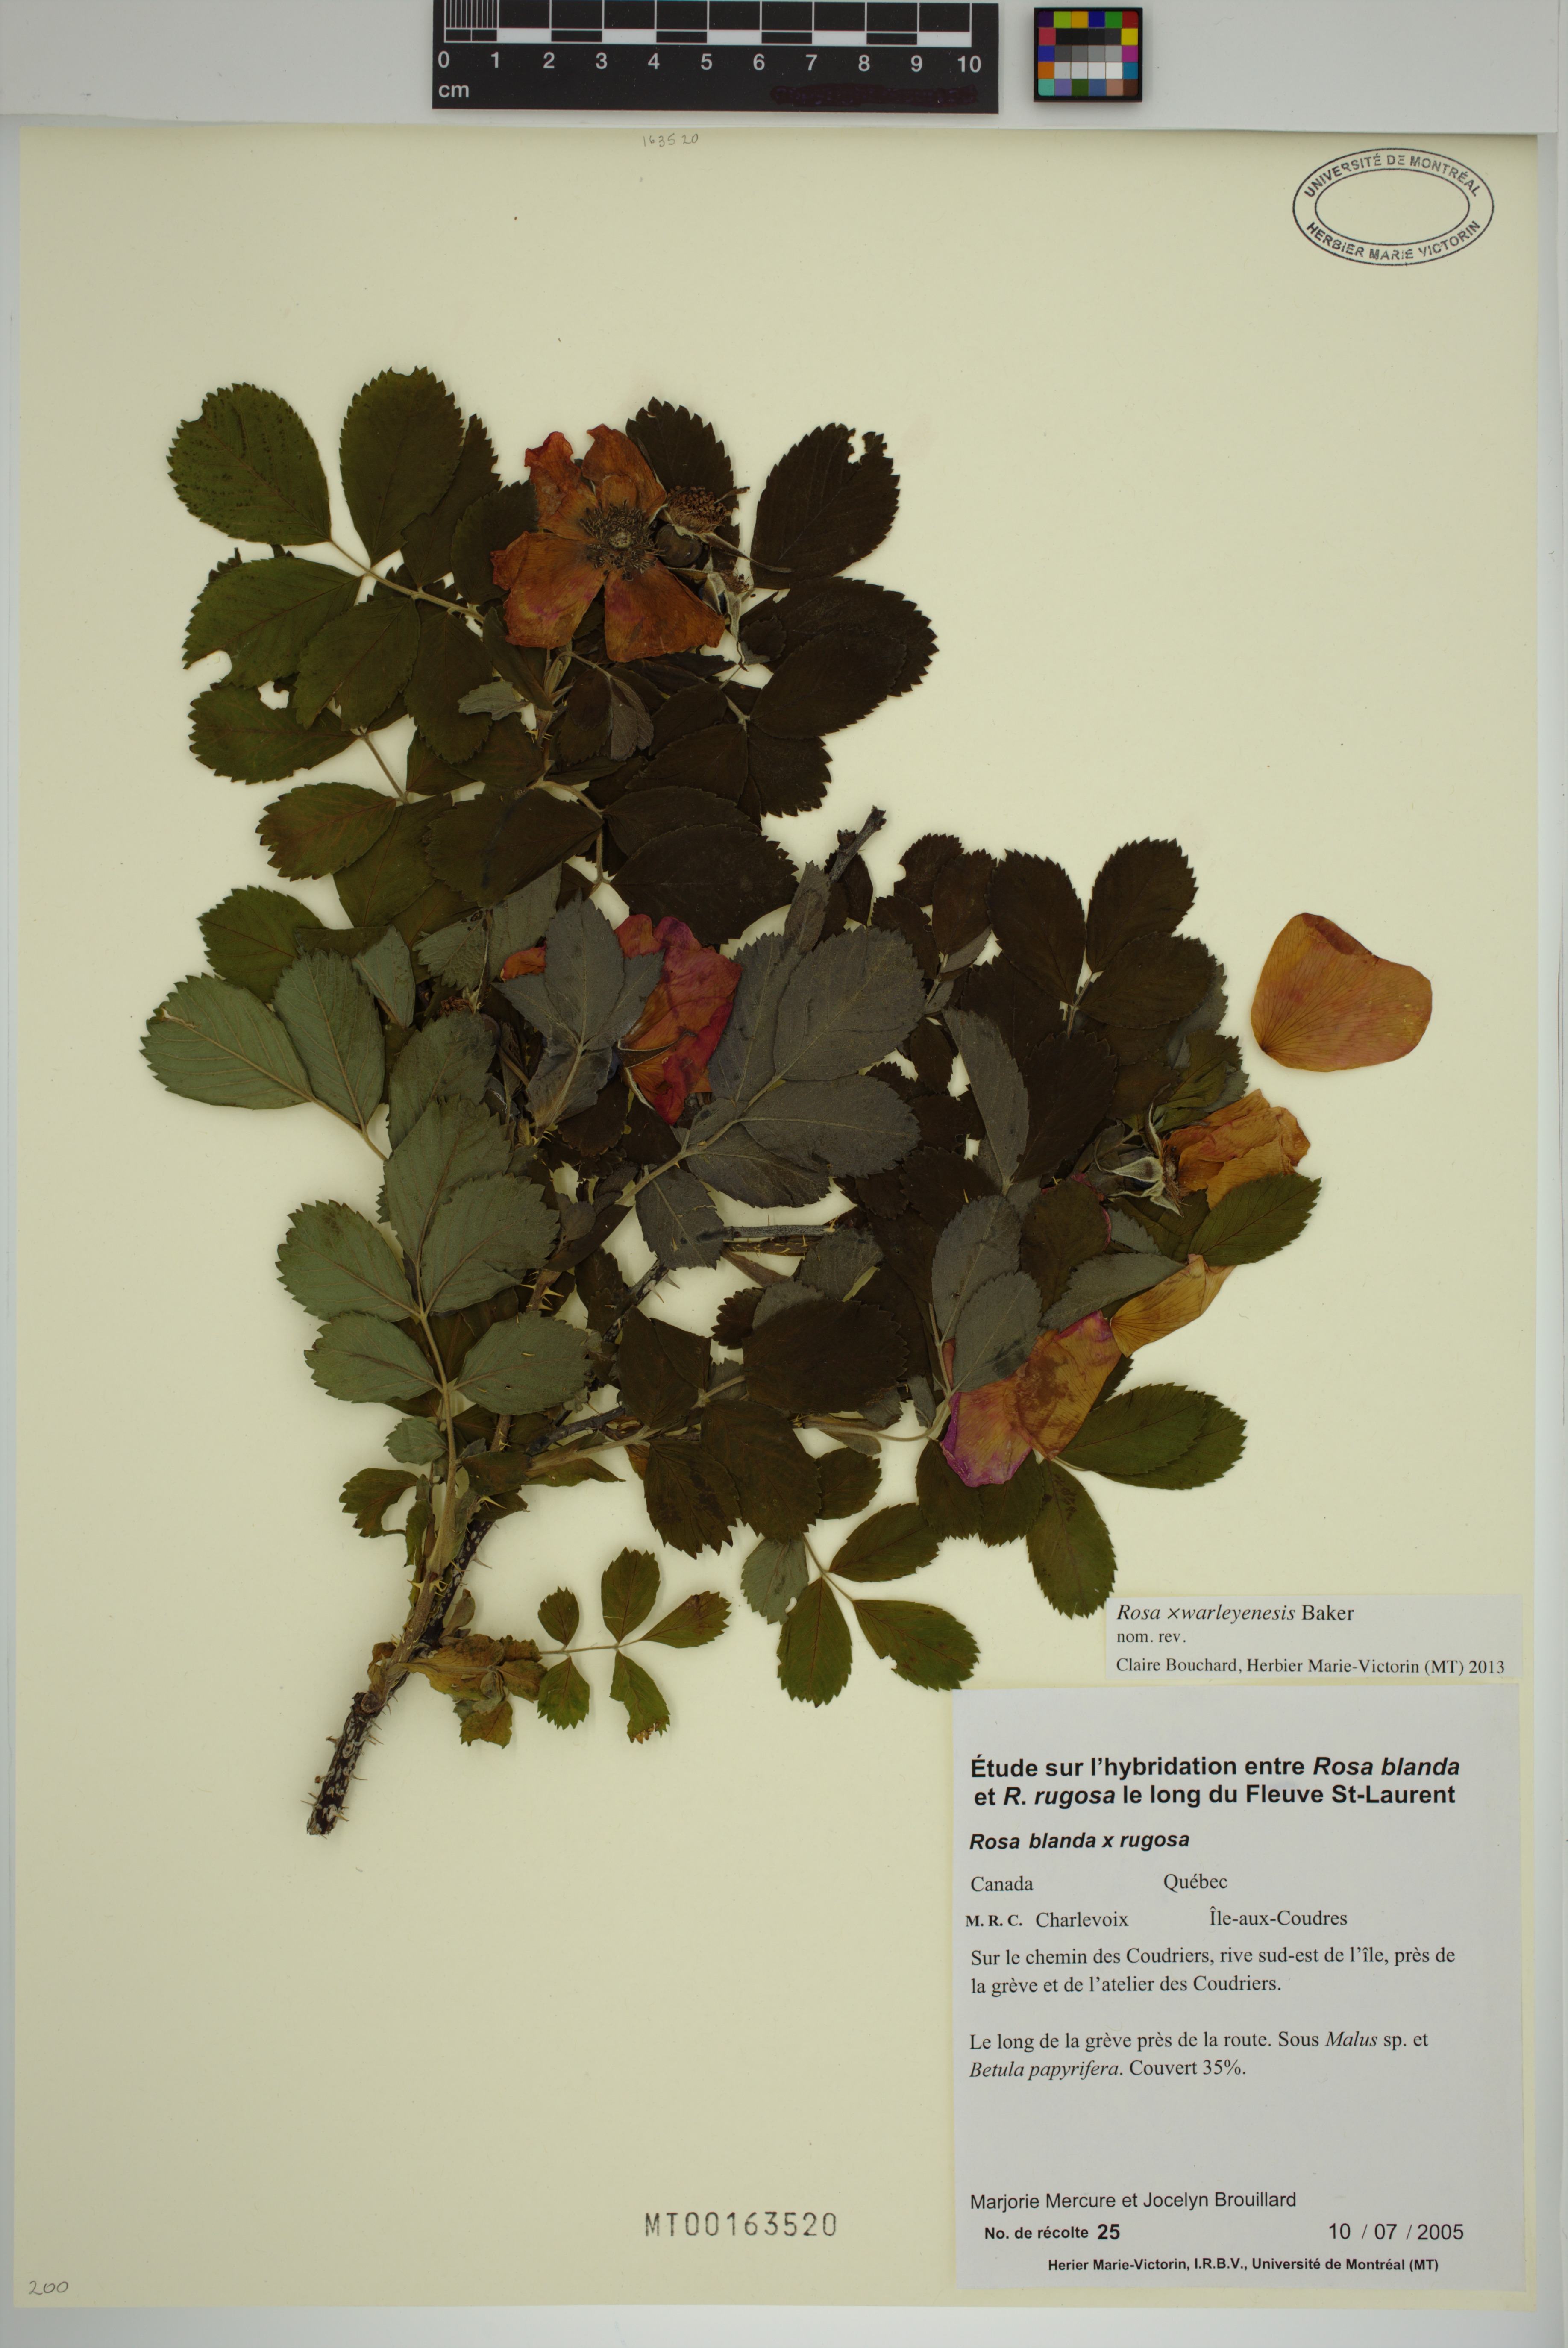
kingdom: Plantae
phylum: Tracheophyta
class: Magnoliopsida
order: Rosales
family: Rosaceae
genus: Rosa
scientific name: Rosa warleyensis
